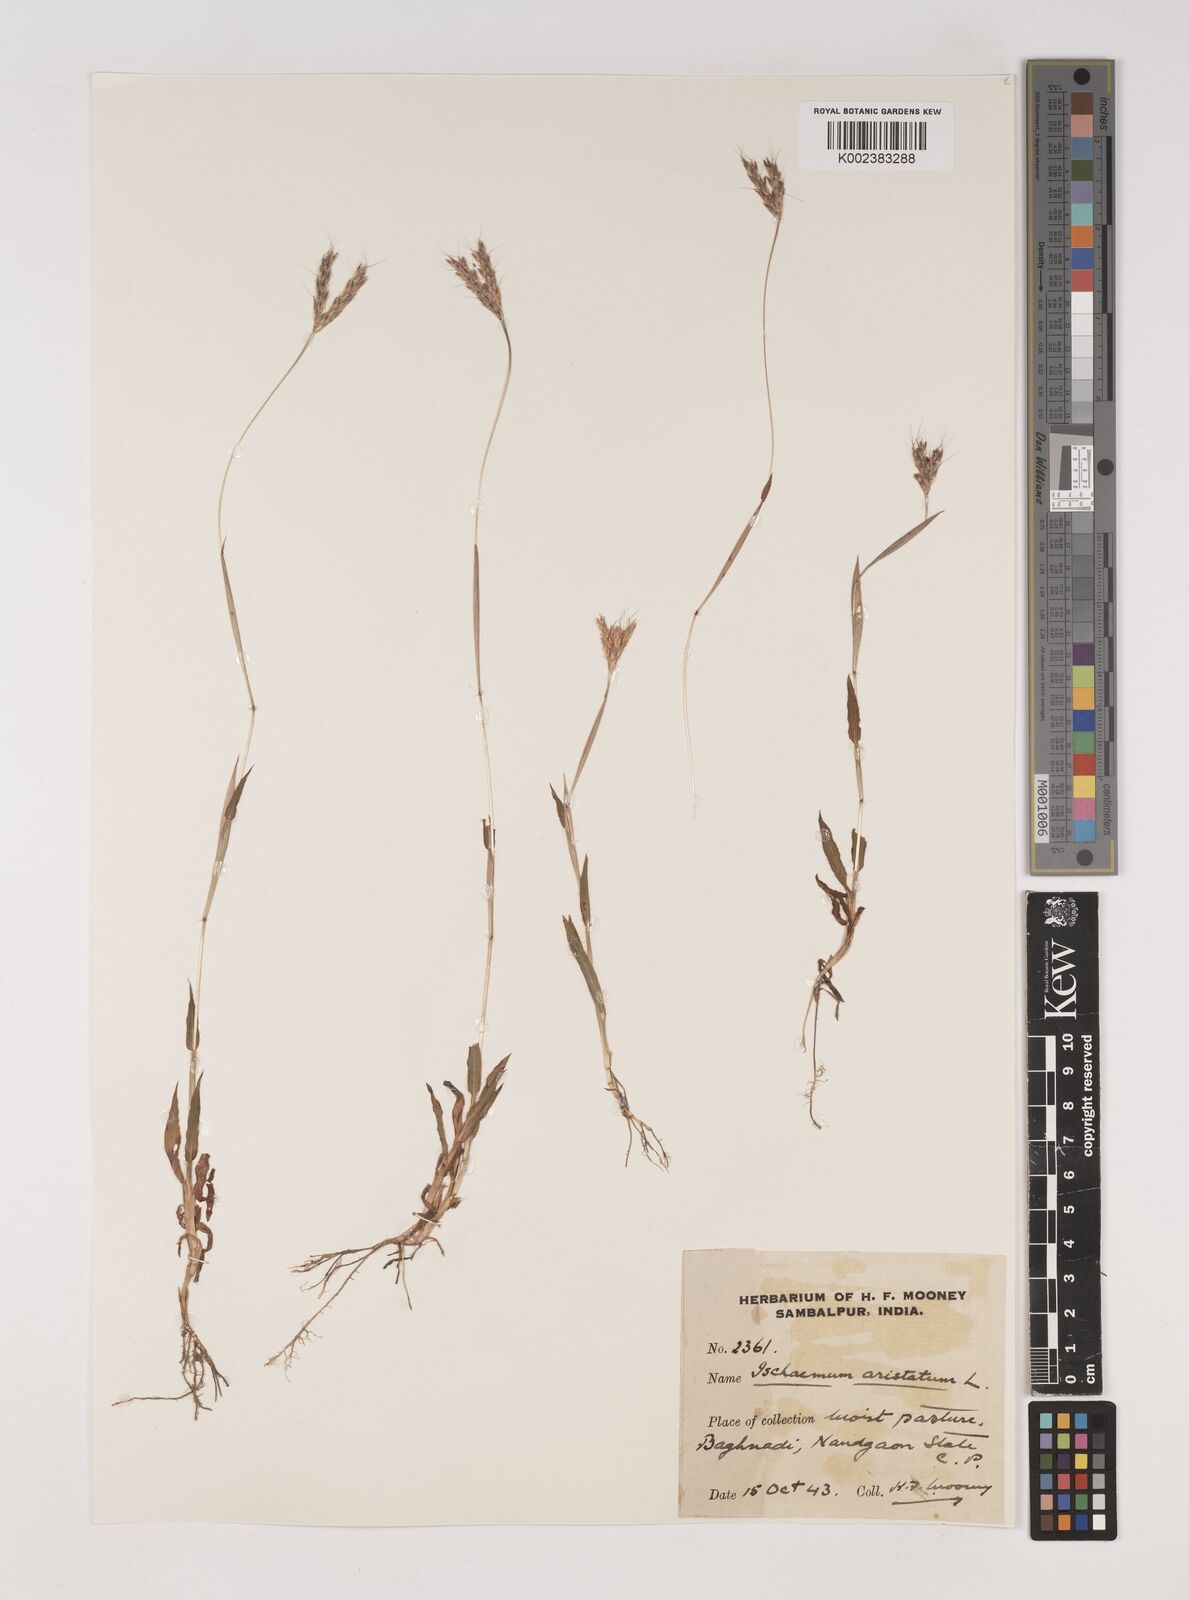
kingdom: Plantae
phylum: Tracheophyta
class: Liliopsida
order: Poales
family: Poaceae
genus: Polytrias
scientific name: Polytrias indica
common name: Indian murainagrass
